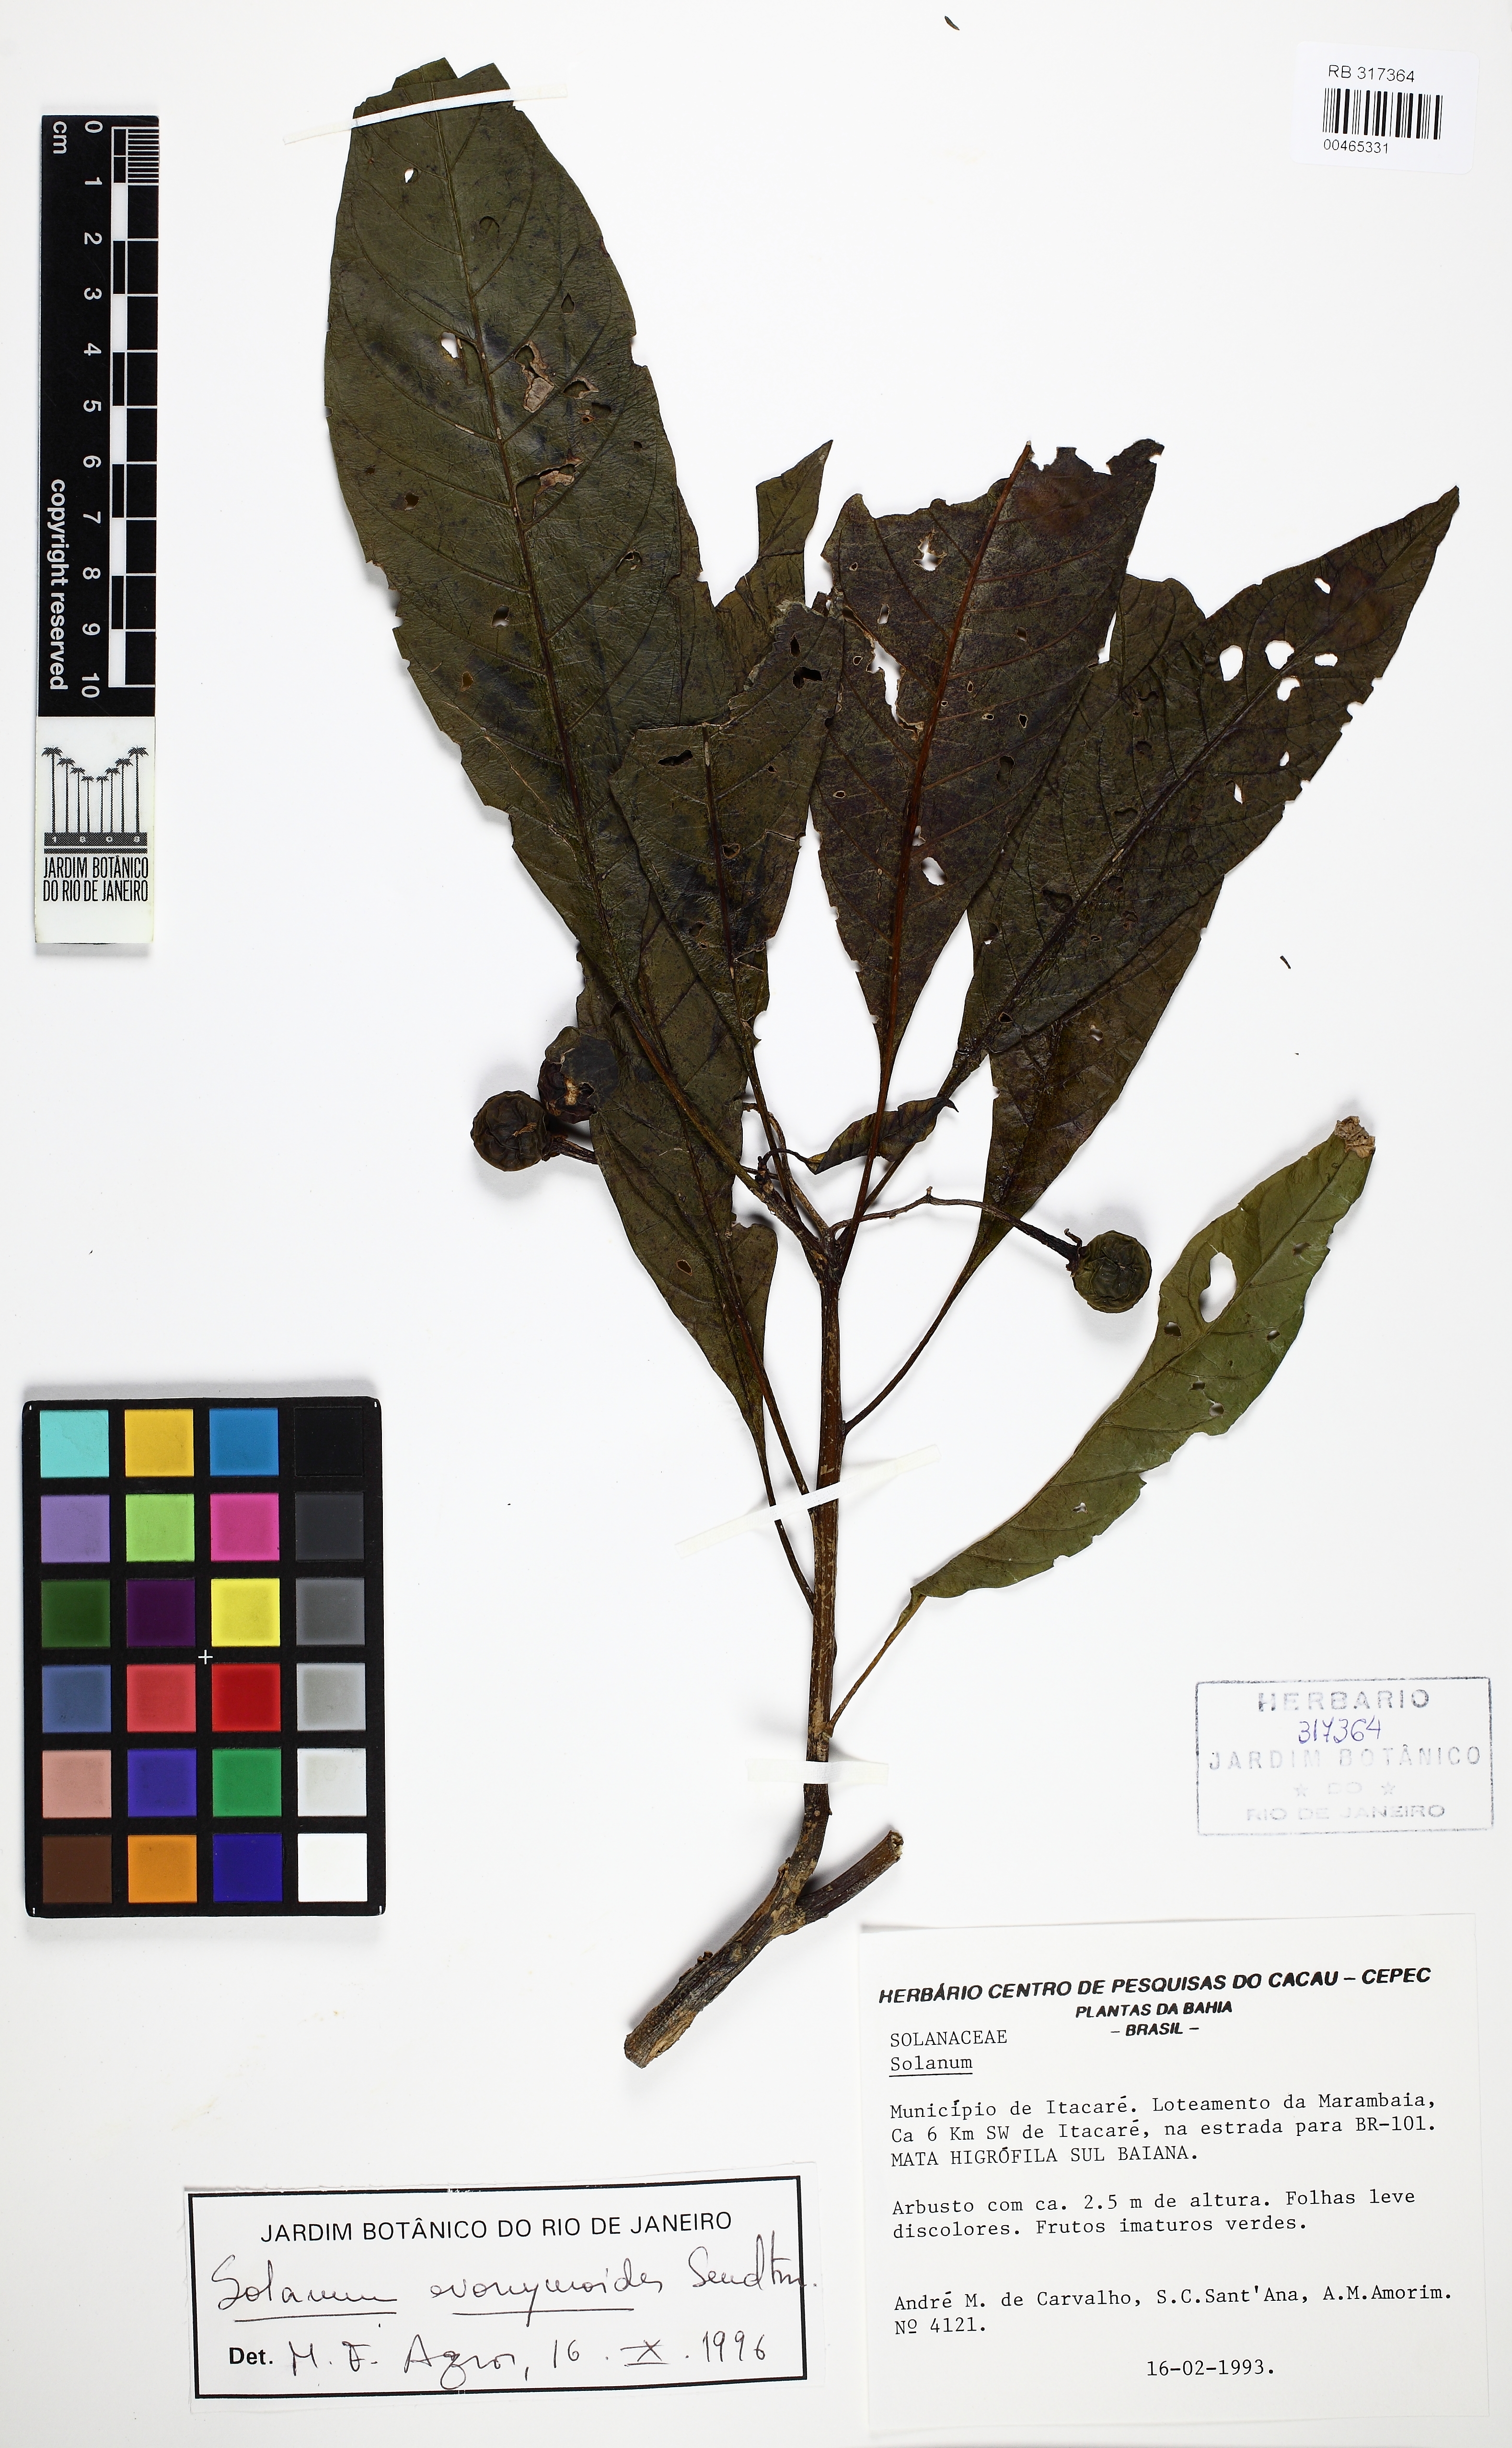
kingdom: Plantae
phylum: Tracheophyta
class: Magnoliopsida
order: Solanales
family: Solanaceae
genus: Solanum
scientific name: Solanum evonymoides
